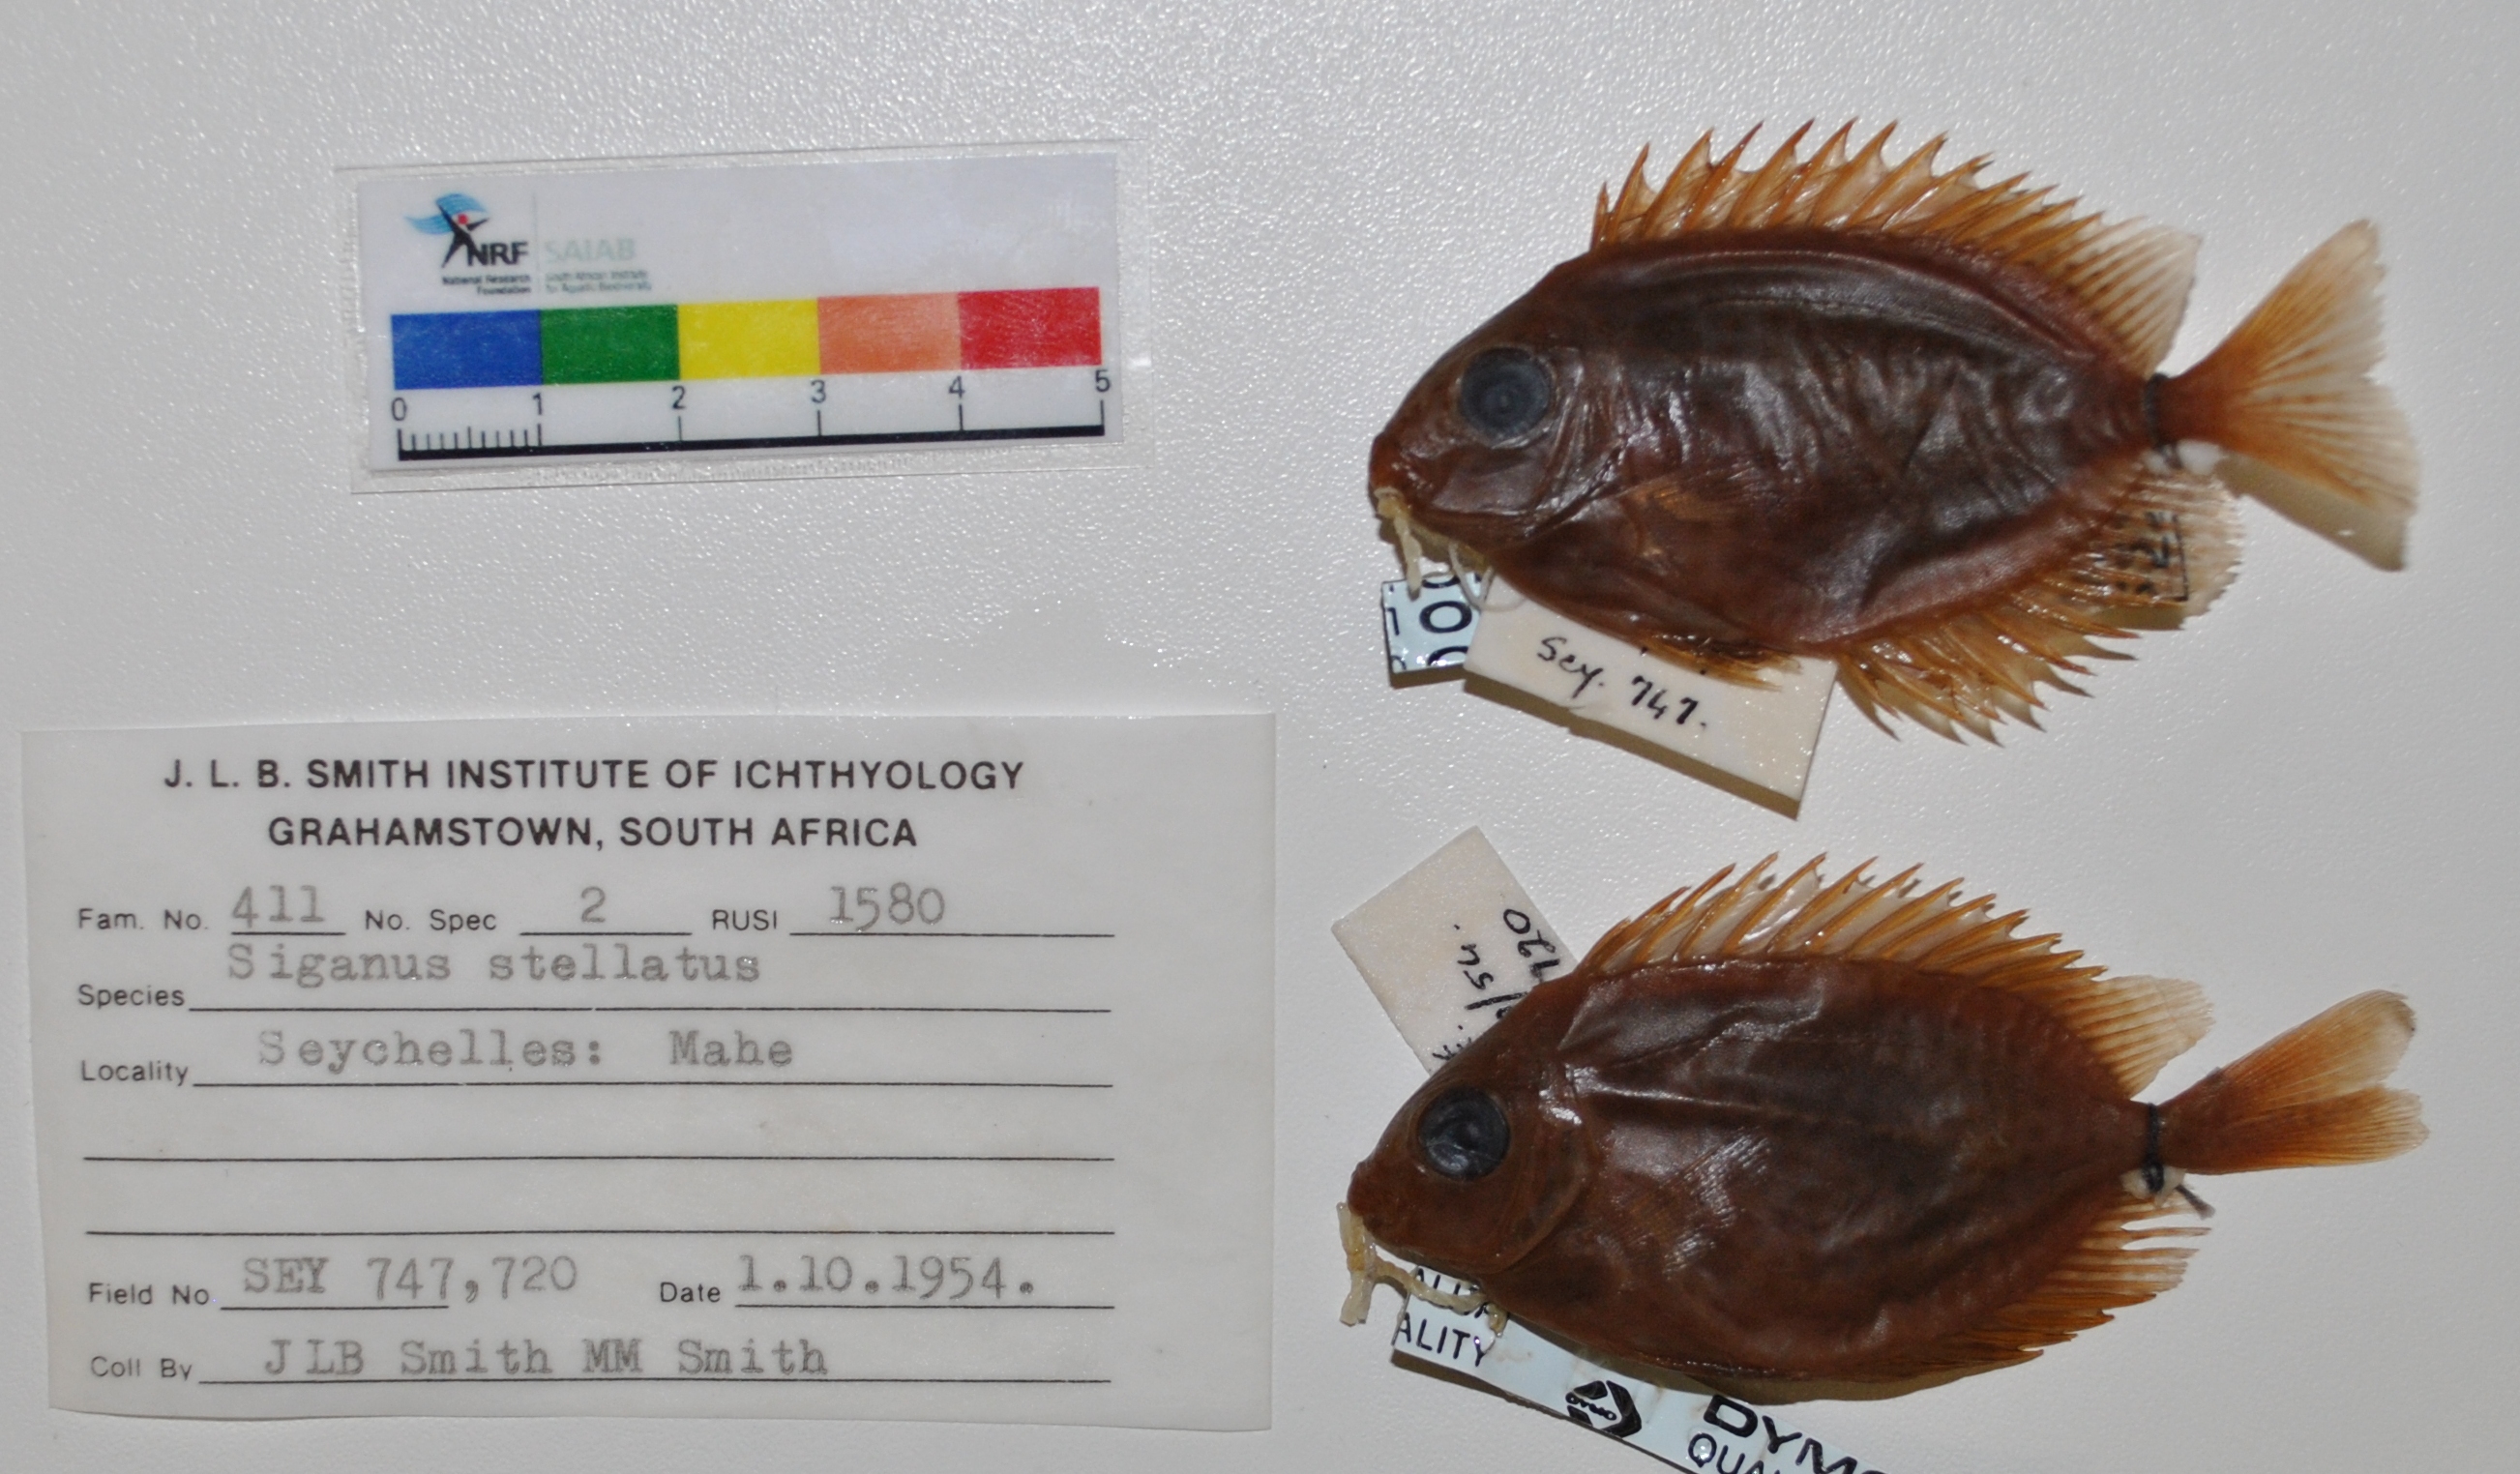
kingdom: Animalia
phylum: Chordata
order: Perciformes
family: Siganidae
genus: Siganus
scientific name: Siganus stellatus
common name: Brown-spotted spinefoot
